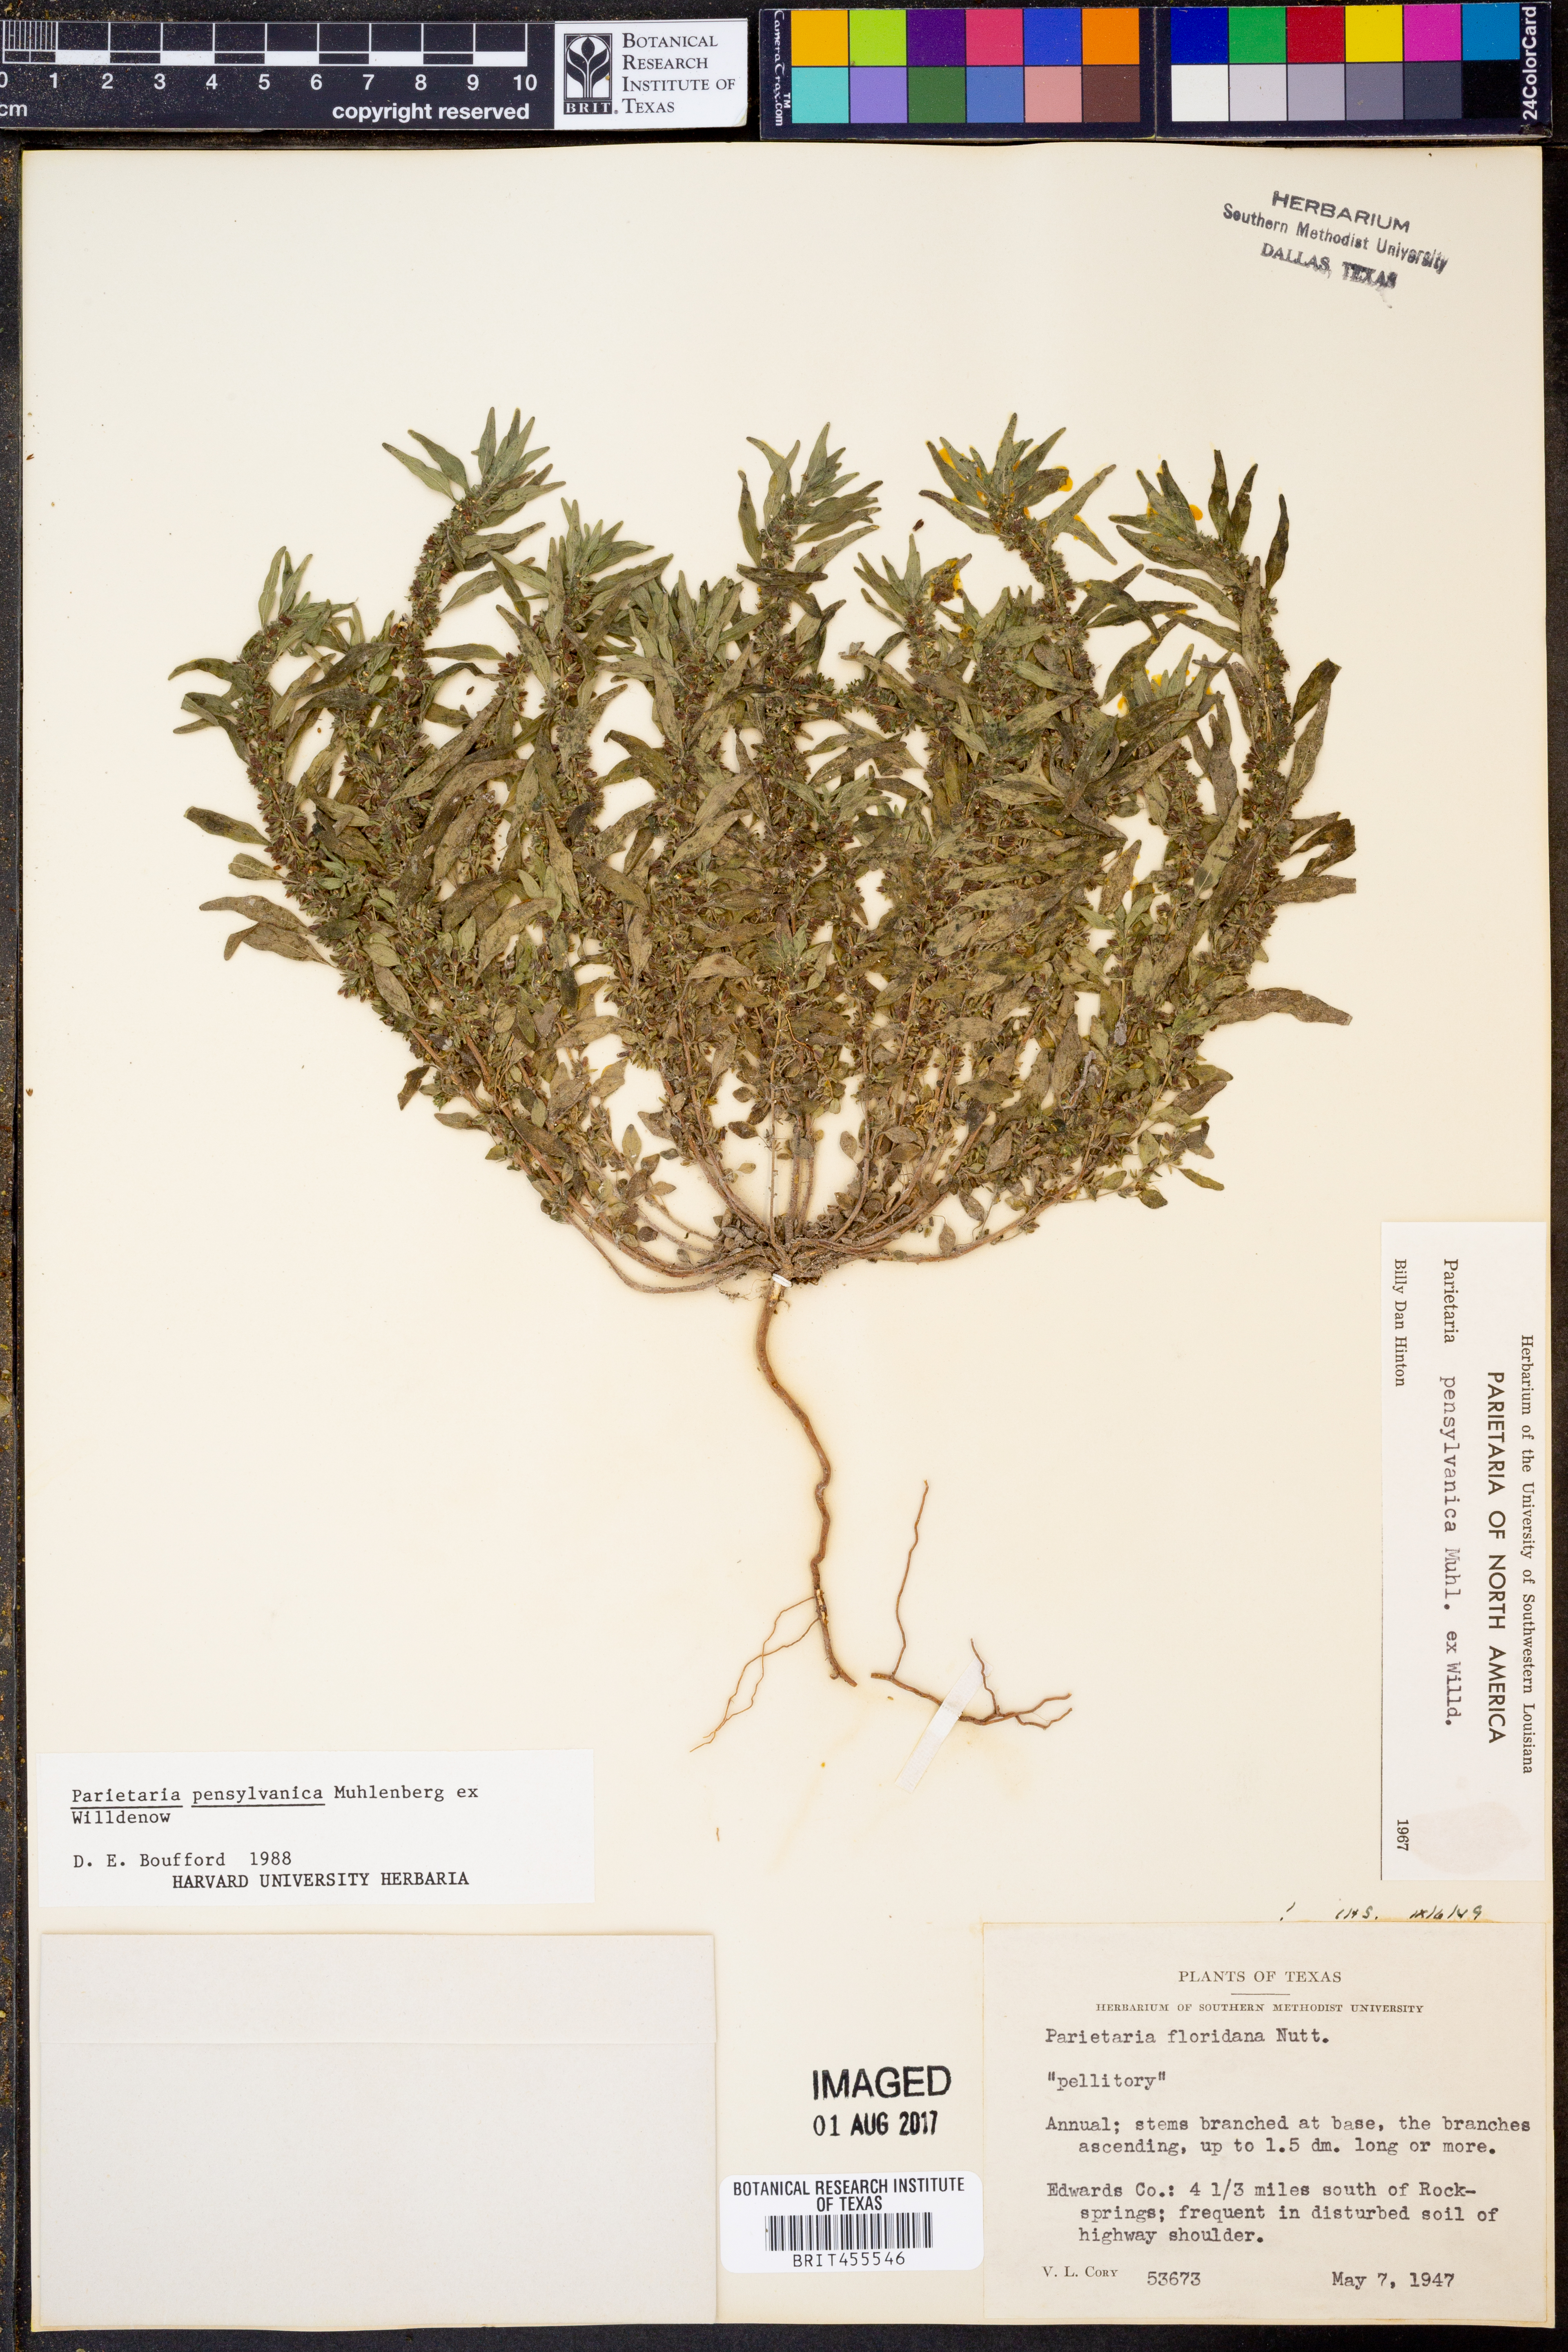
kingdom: Plantae
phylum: Tracheophyta
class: Magnoliopsida
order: Rosales
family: Urticaceae
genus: Parietaria
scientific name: Parietaria pensylvanica
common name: Pennsylvania pellitory
